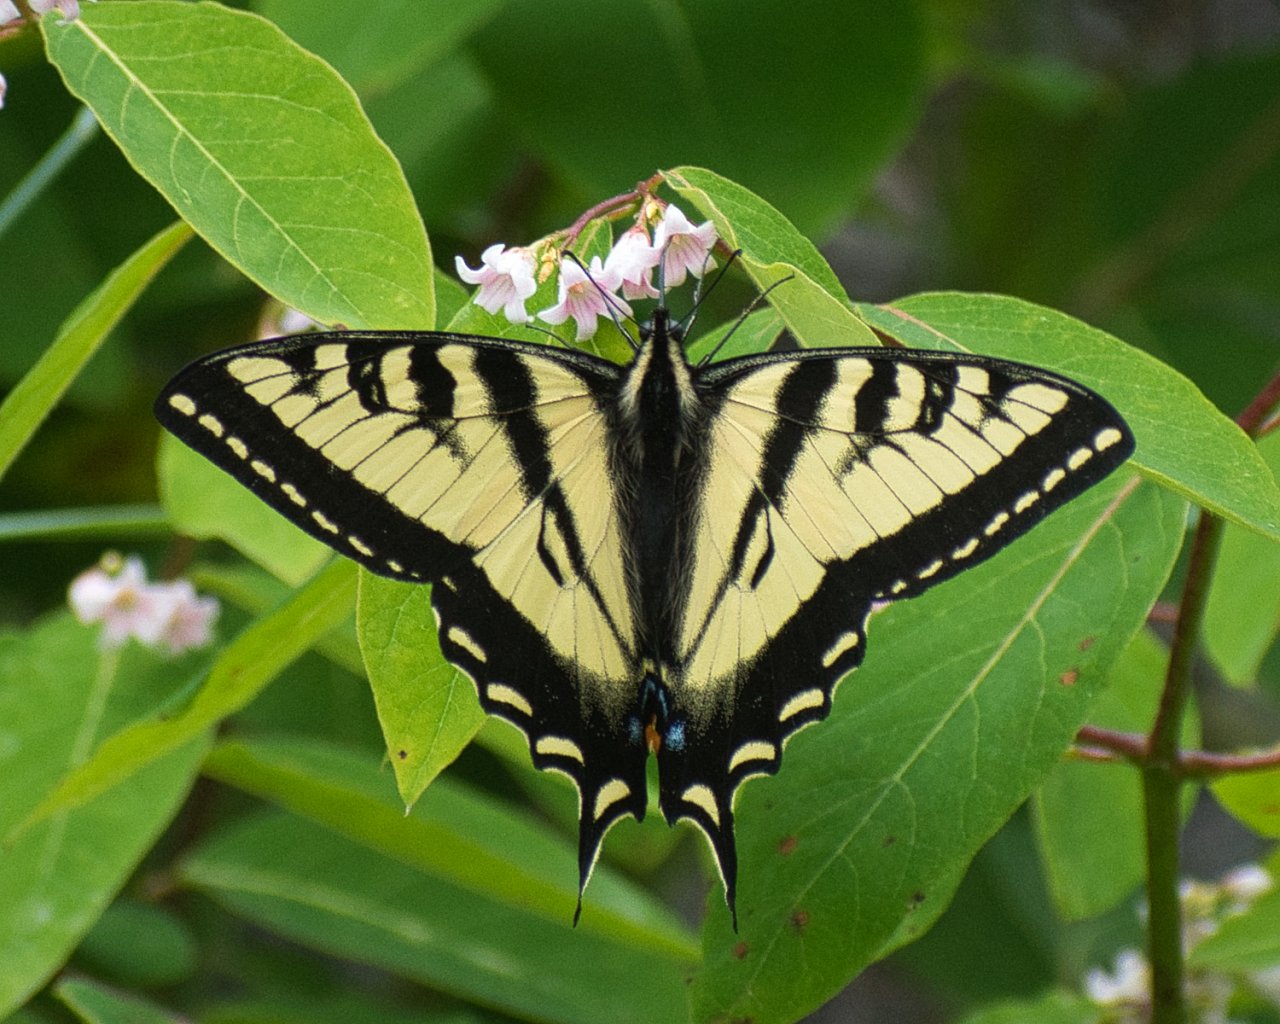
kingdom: Animalia
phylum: Arthropoda
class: Insecta
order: Lepidoptera
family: Papilionidae
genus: Pterourus
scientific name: Pterourus rutulus
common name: Western Tiger Swallowtail
